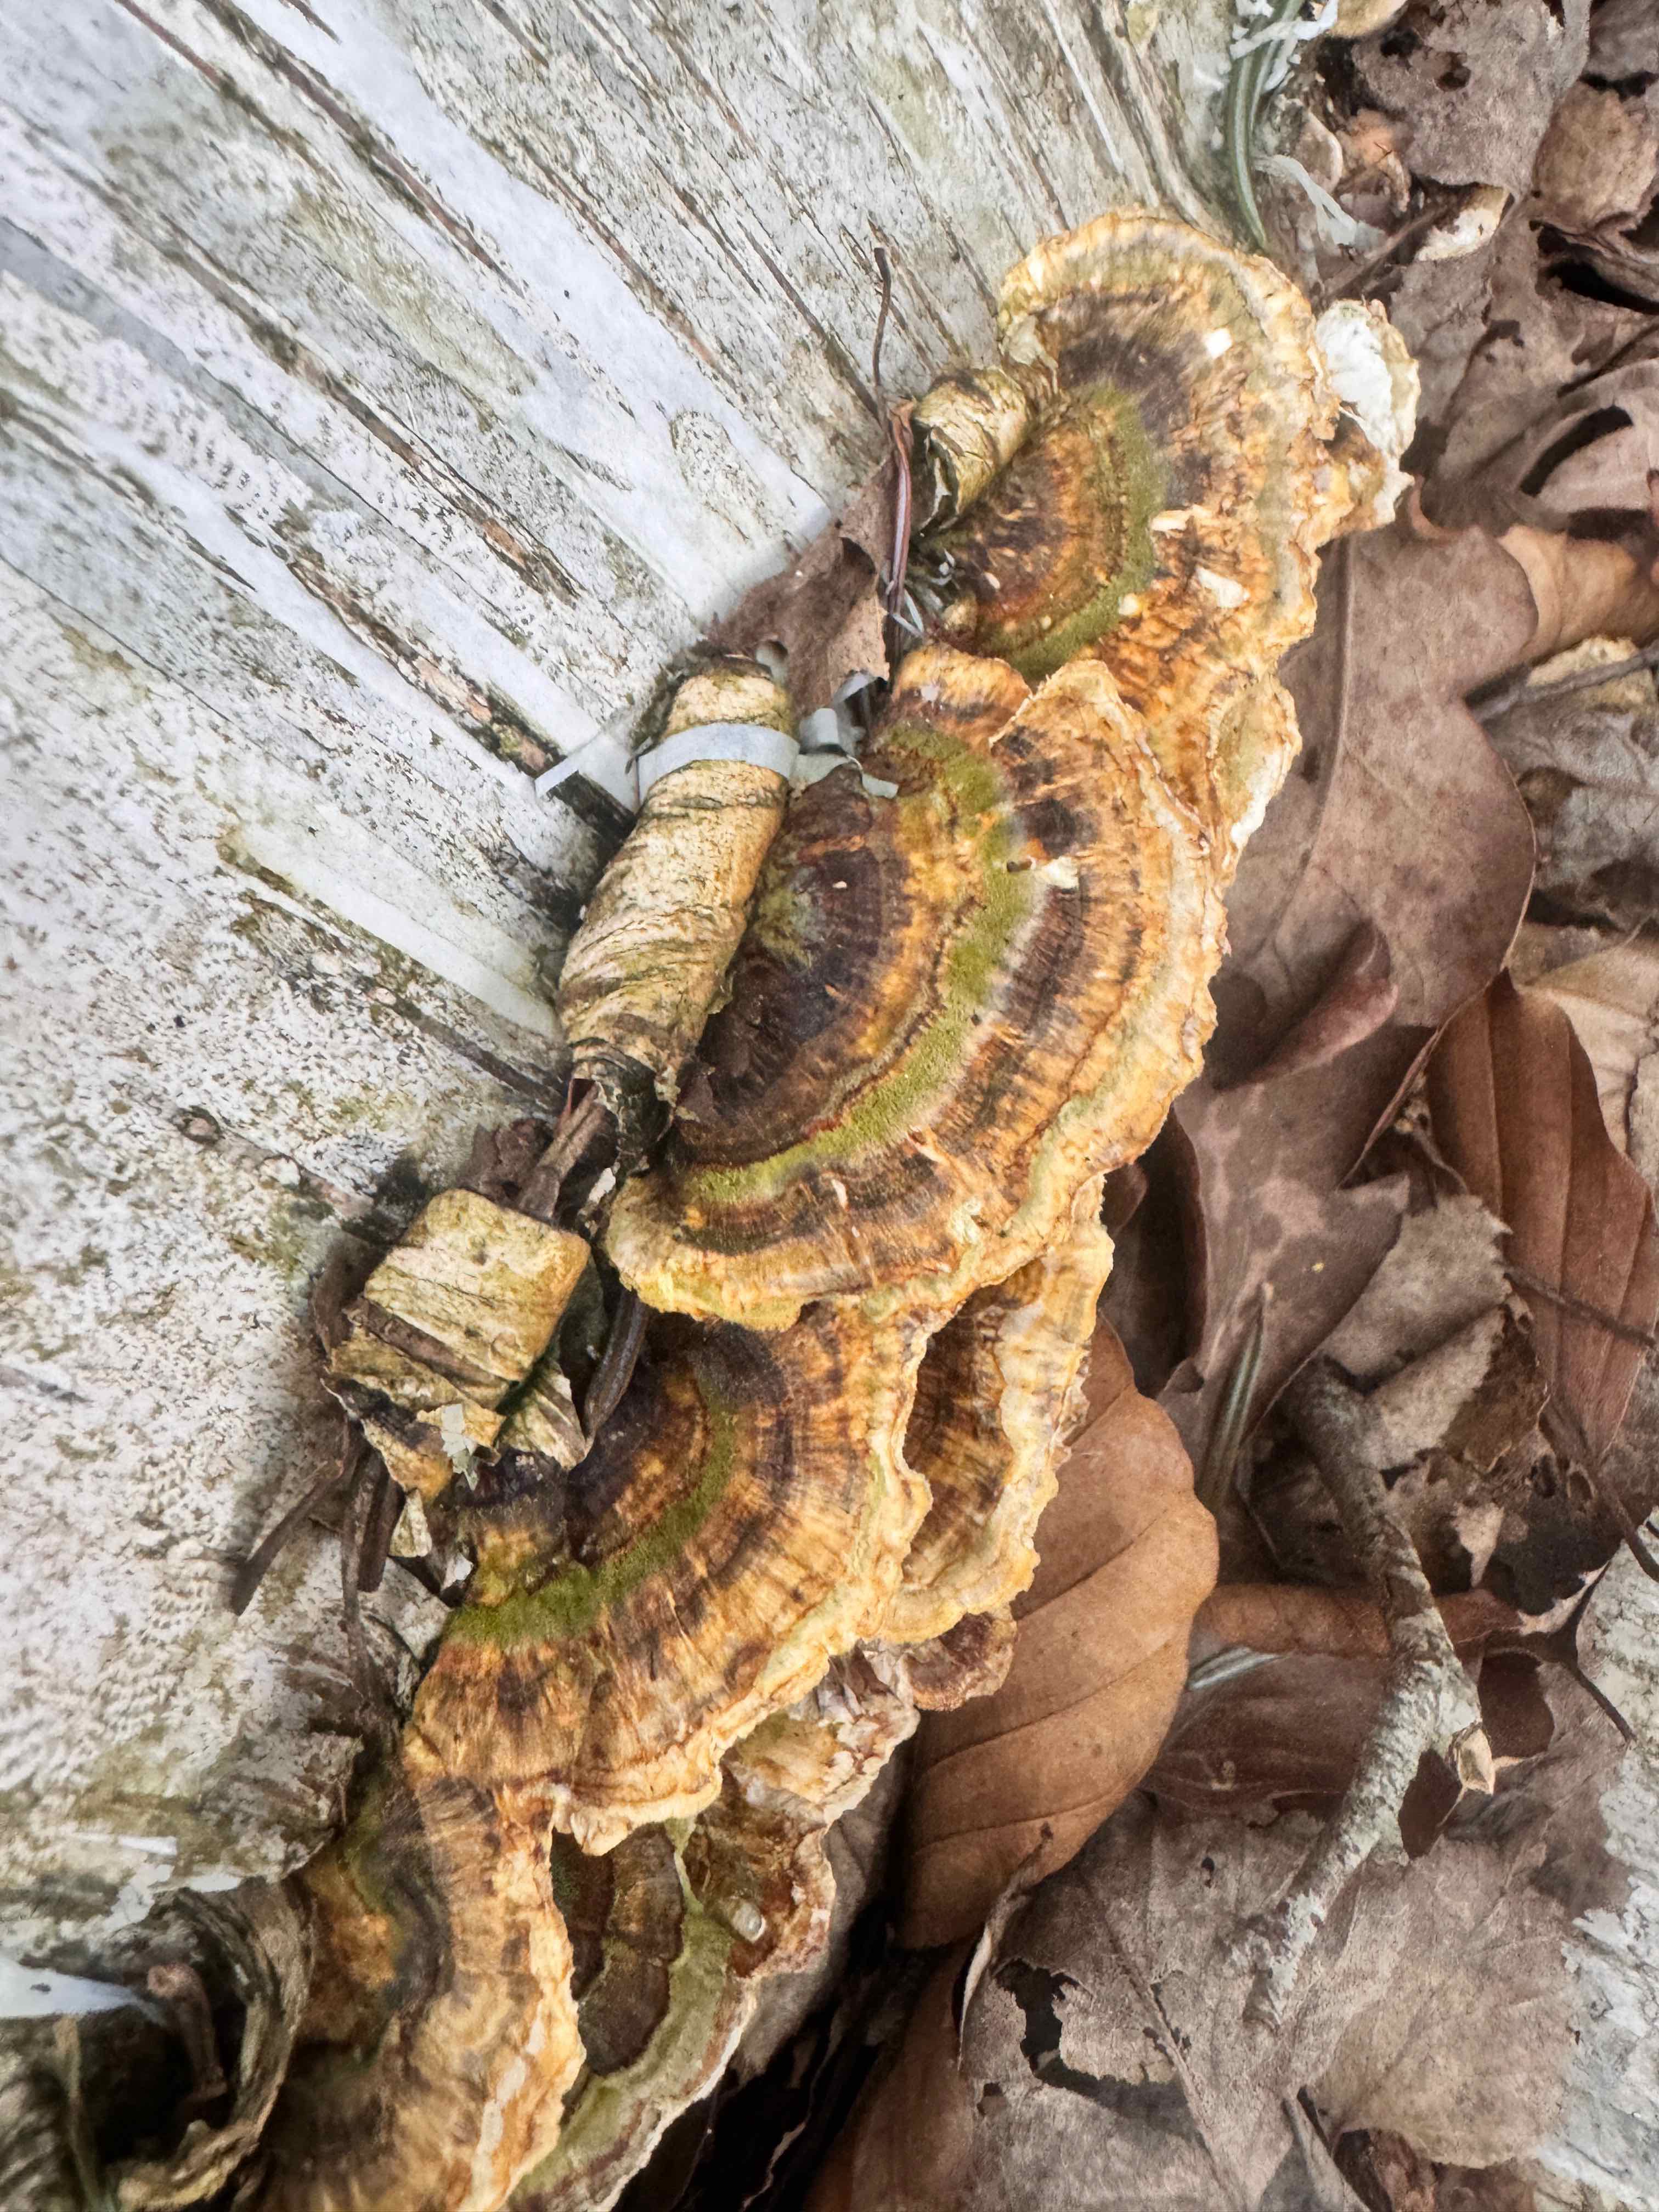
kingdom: Fungi
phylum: Basidiomycota
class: Agaricomycetes
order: Polyporales
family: Polyporaceae
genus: Trametes
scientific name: Trametes ochracea
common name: bæltet læderporesvamp
